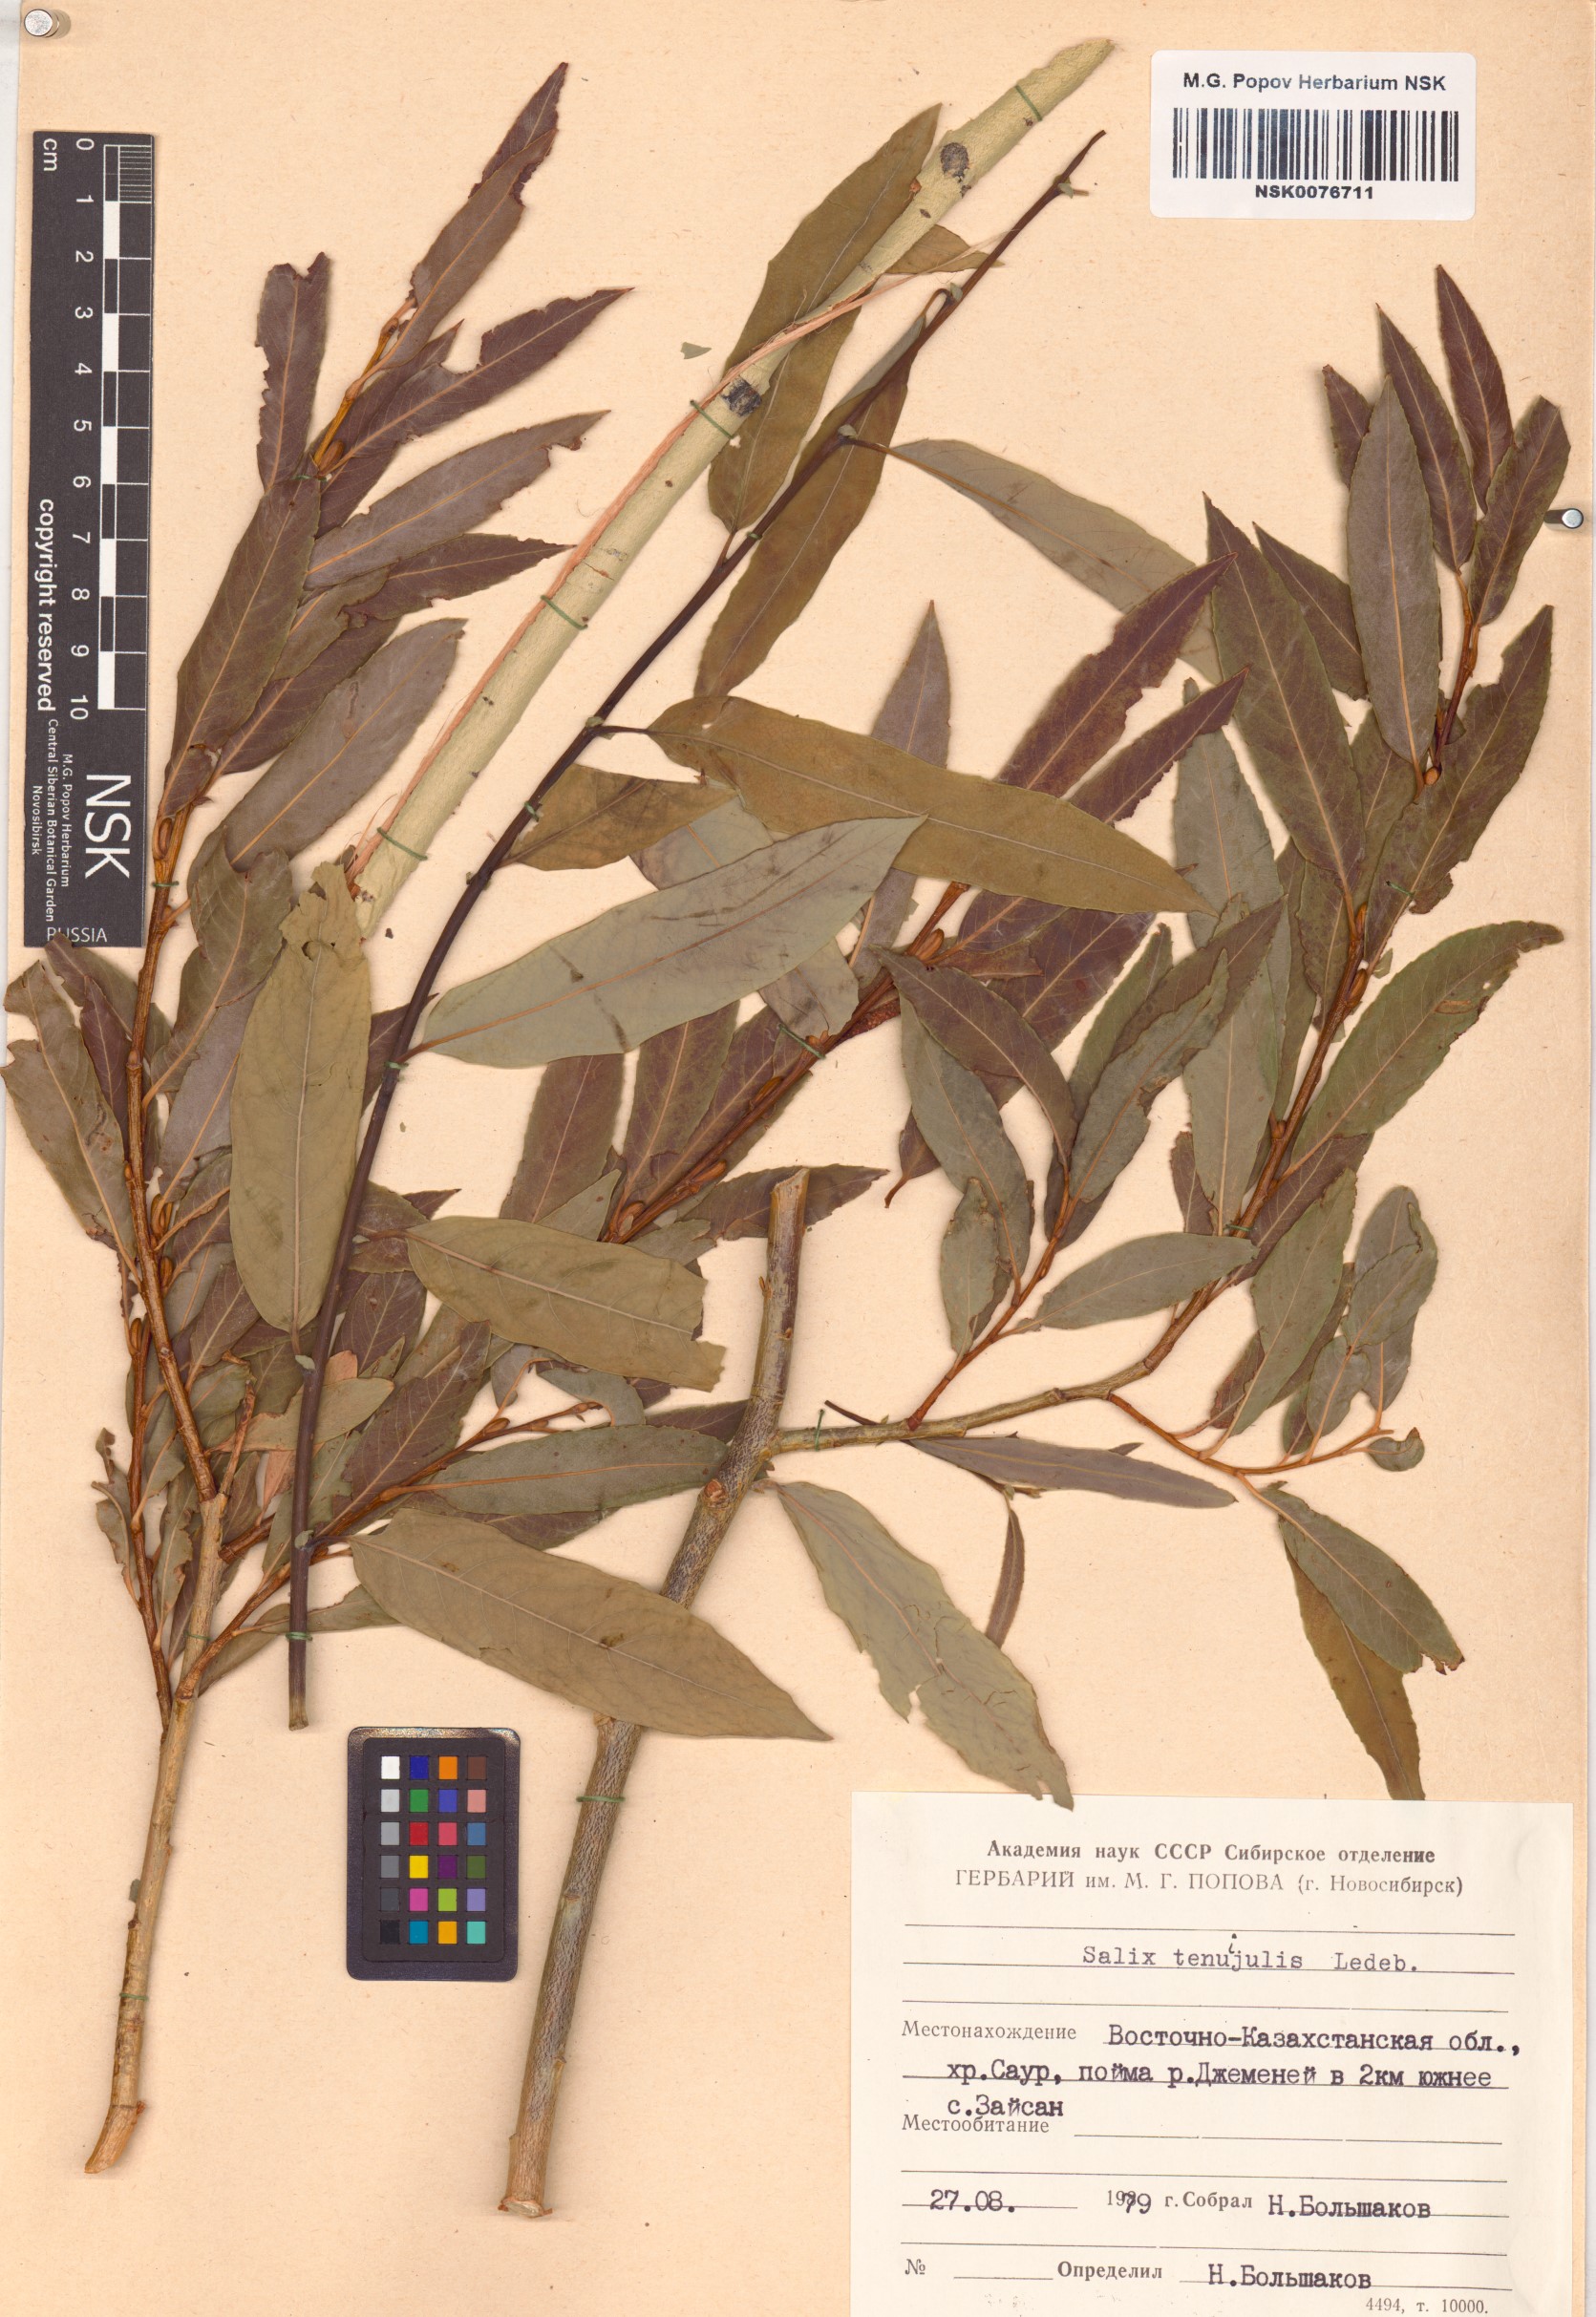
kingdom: Plantae
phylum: Tracheophyta
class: Magnoliopsida
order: Malpighiales
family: Salicaceae
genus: Salix
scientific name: Salix tenuijulis
